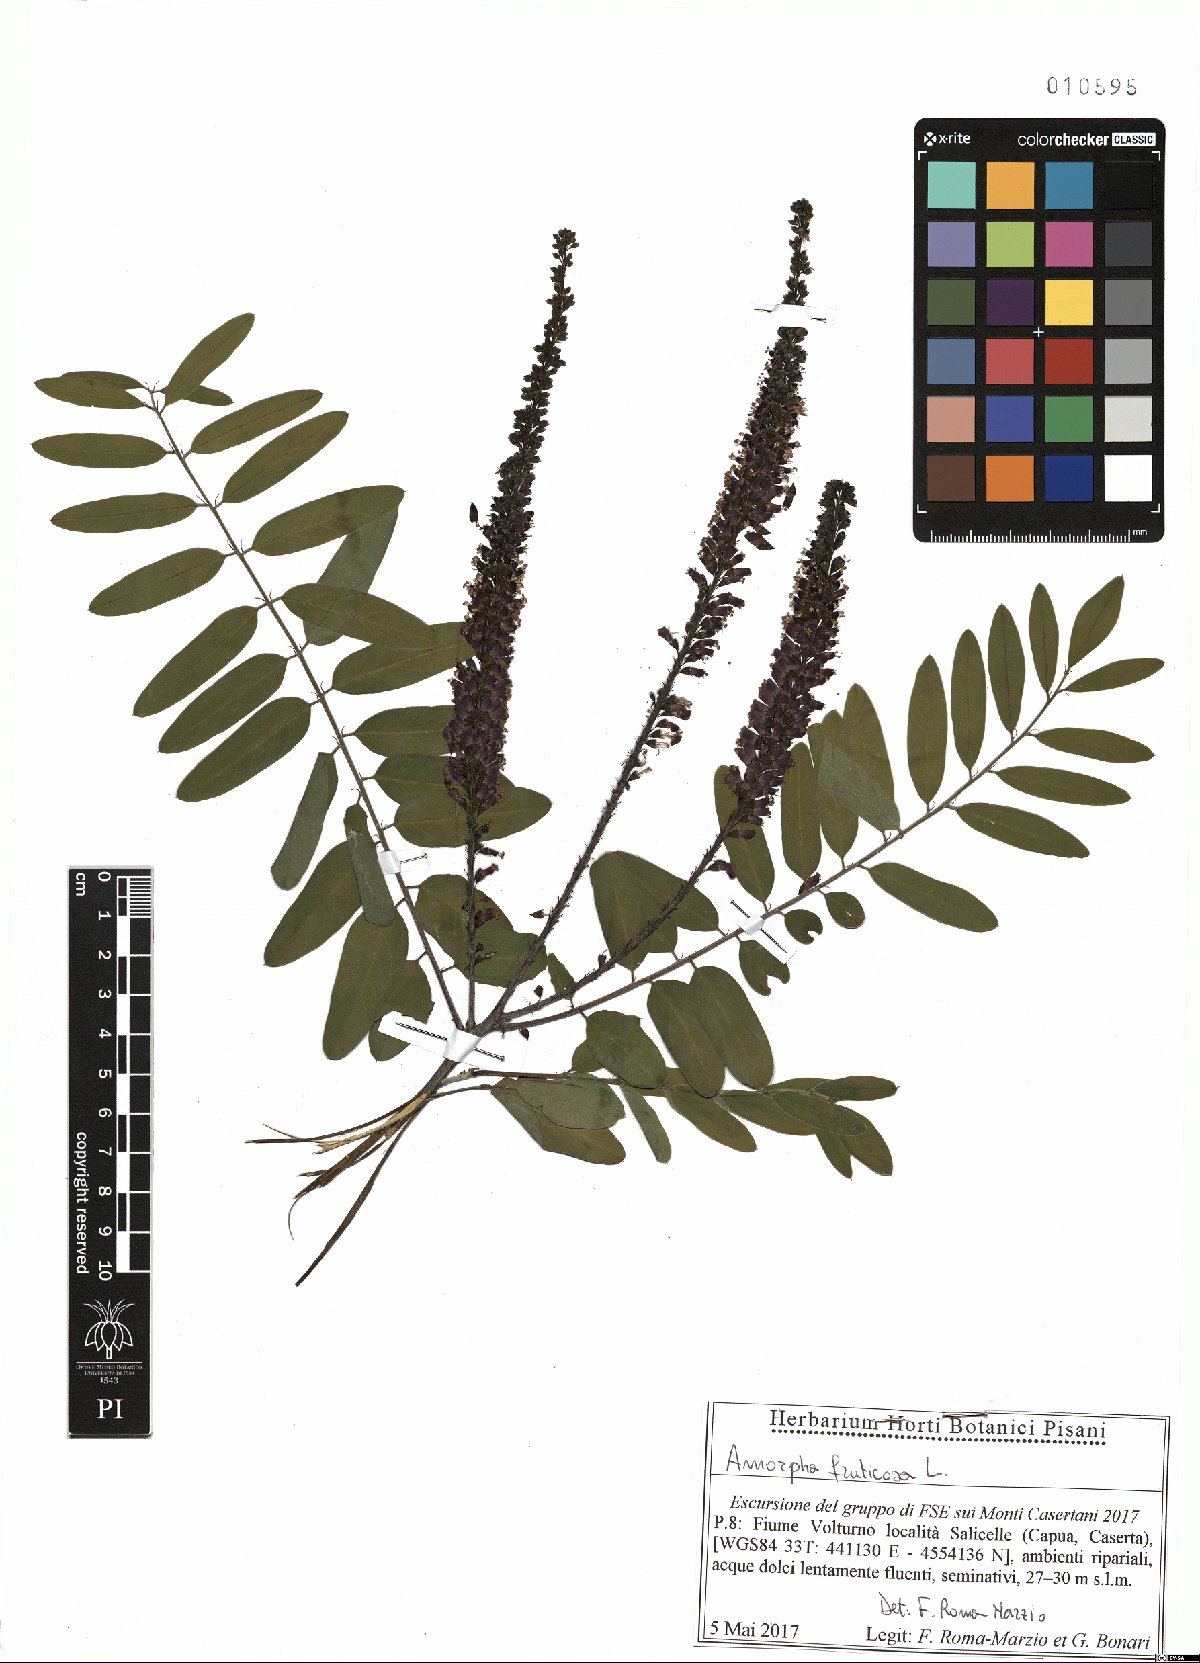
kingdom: Plantae
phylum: Tracheophyta
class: Magnoliopsida
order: Fabales
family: Fabaceae
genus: Amorpha
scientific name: Amorpha fruticosa
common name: False indigo
